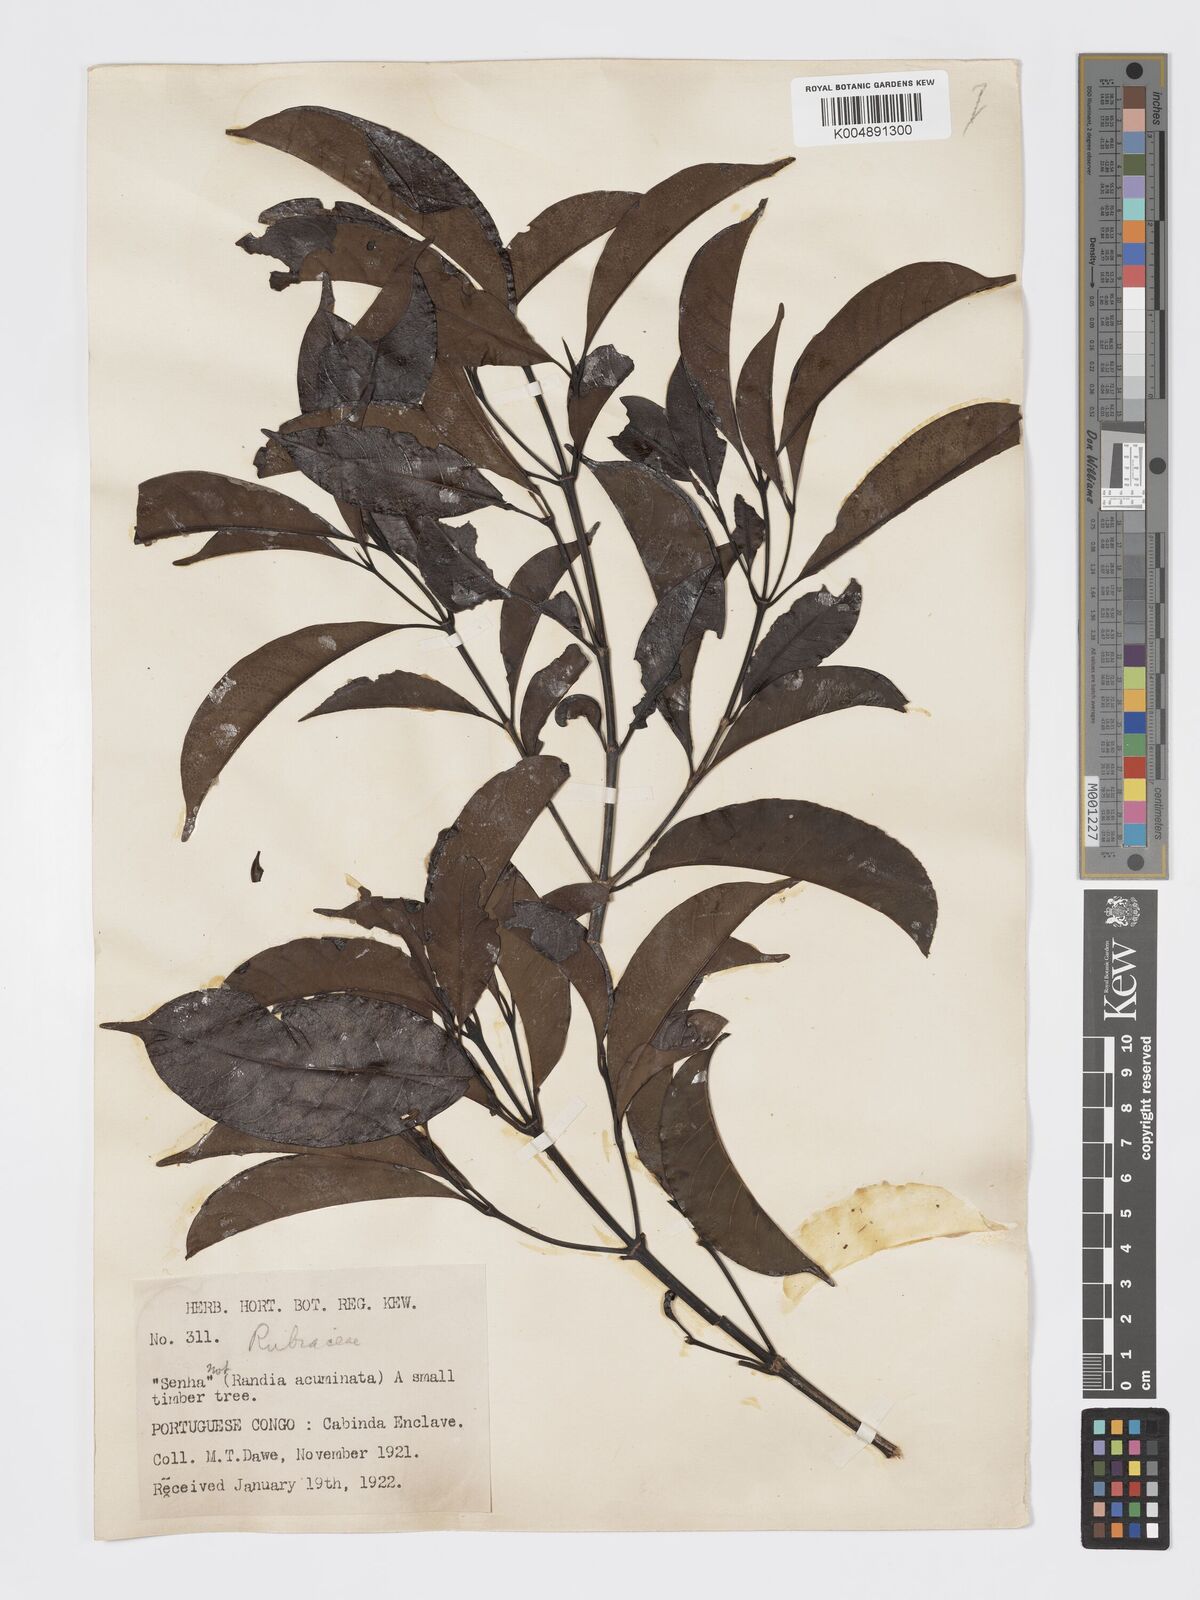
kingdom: Plantae
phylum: Tracheophyta
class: Magnoliopsida
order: Gentianales
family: Rubiaceae
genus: Aidia
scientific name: Aidia ochroleuca
